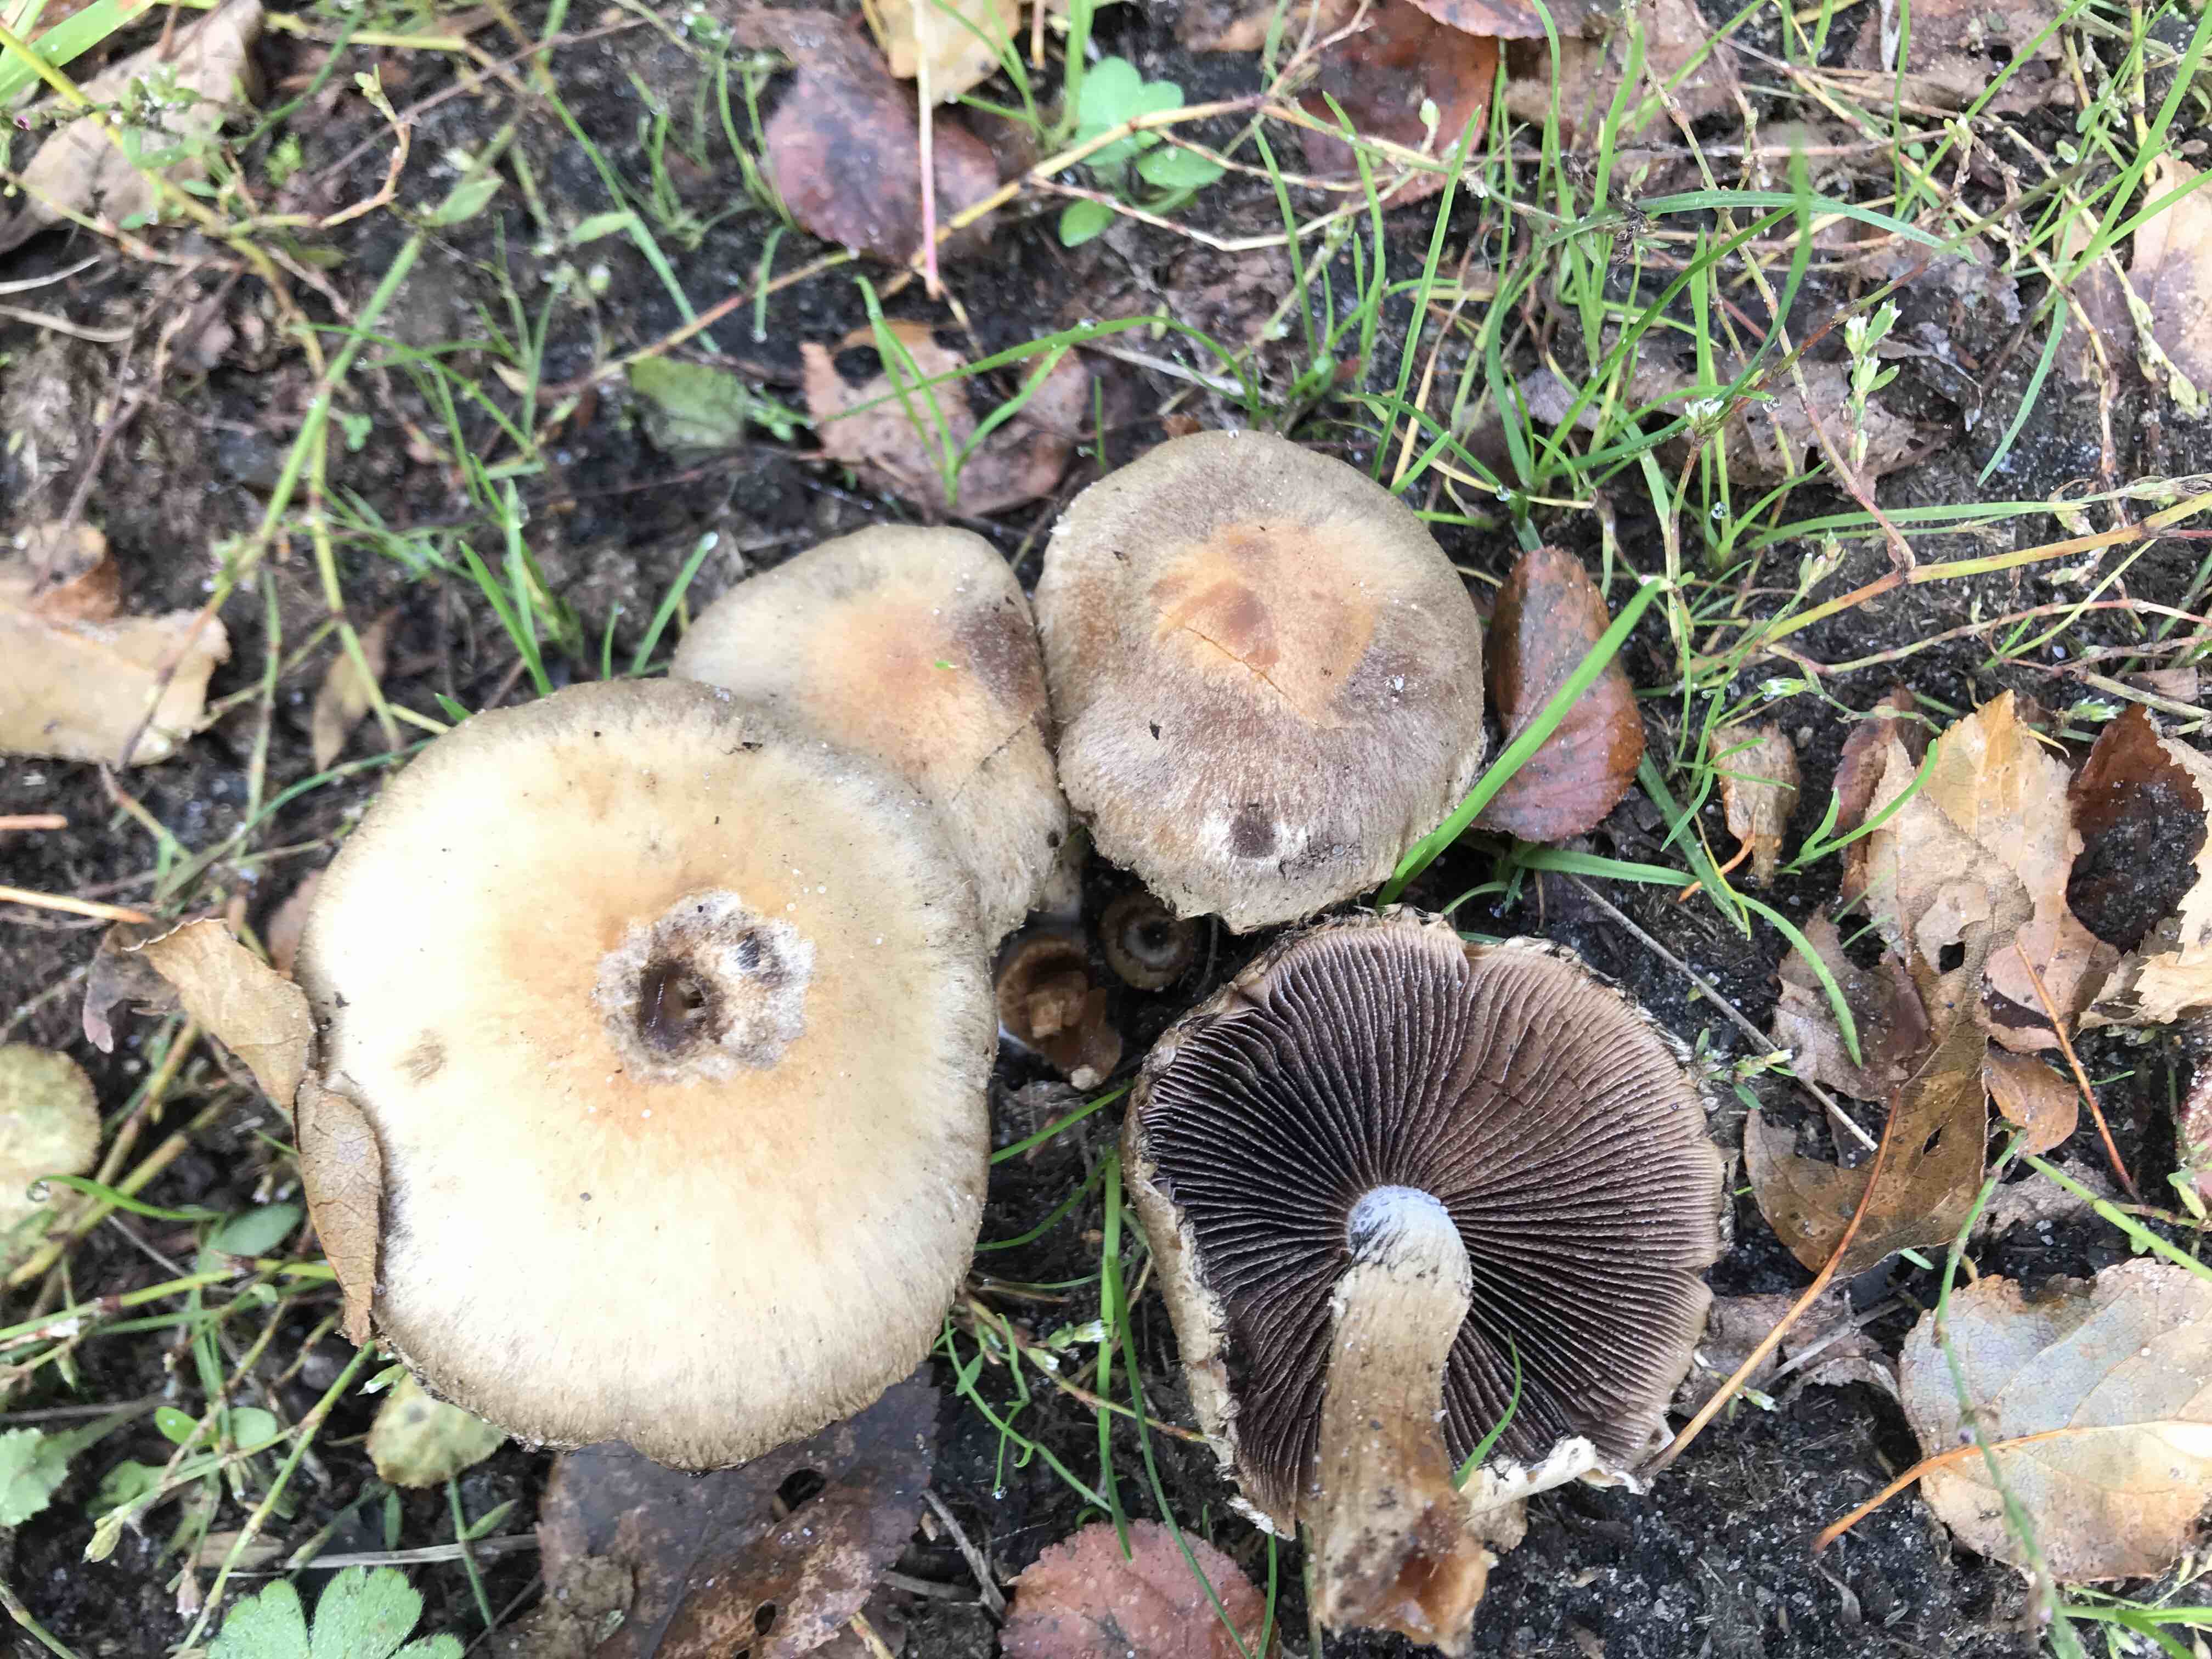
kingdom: Fungi
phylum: Basidiomycota
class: Agaricomycetes
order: Agaricales
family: Psathyrellaceae
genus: Lacrymaria
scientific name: Lacrymaria lacrymabunda
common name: grædende mørkhat
